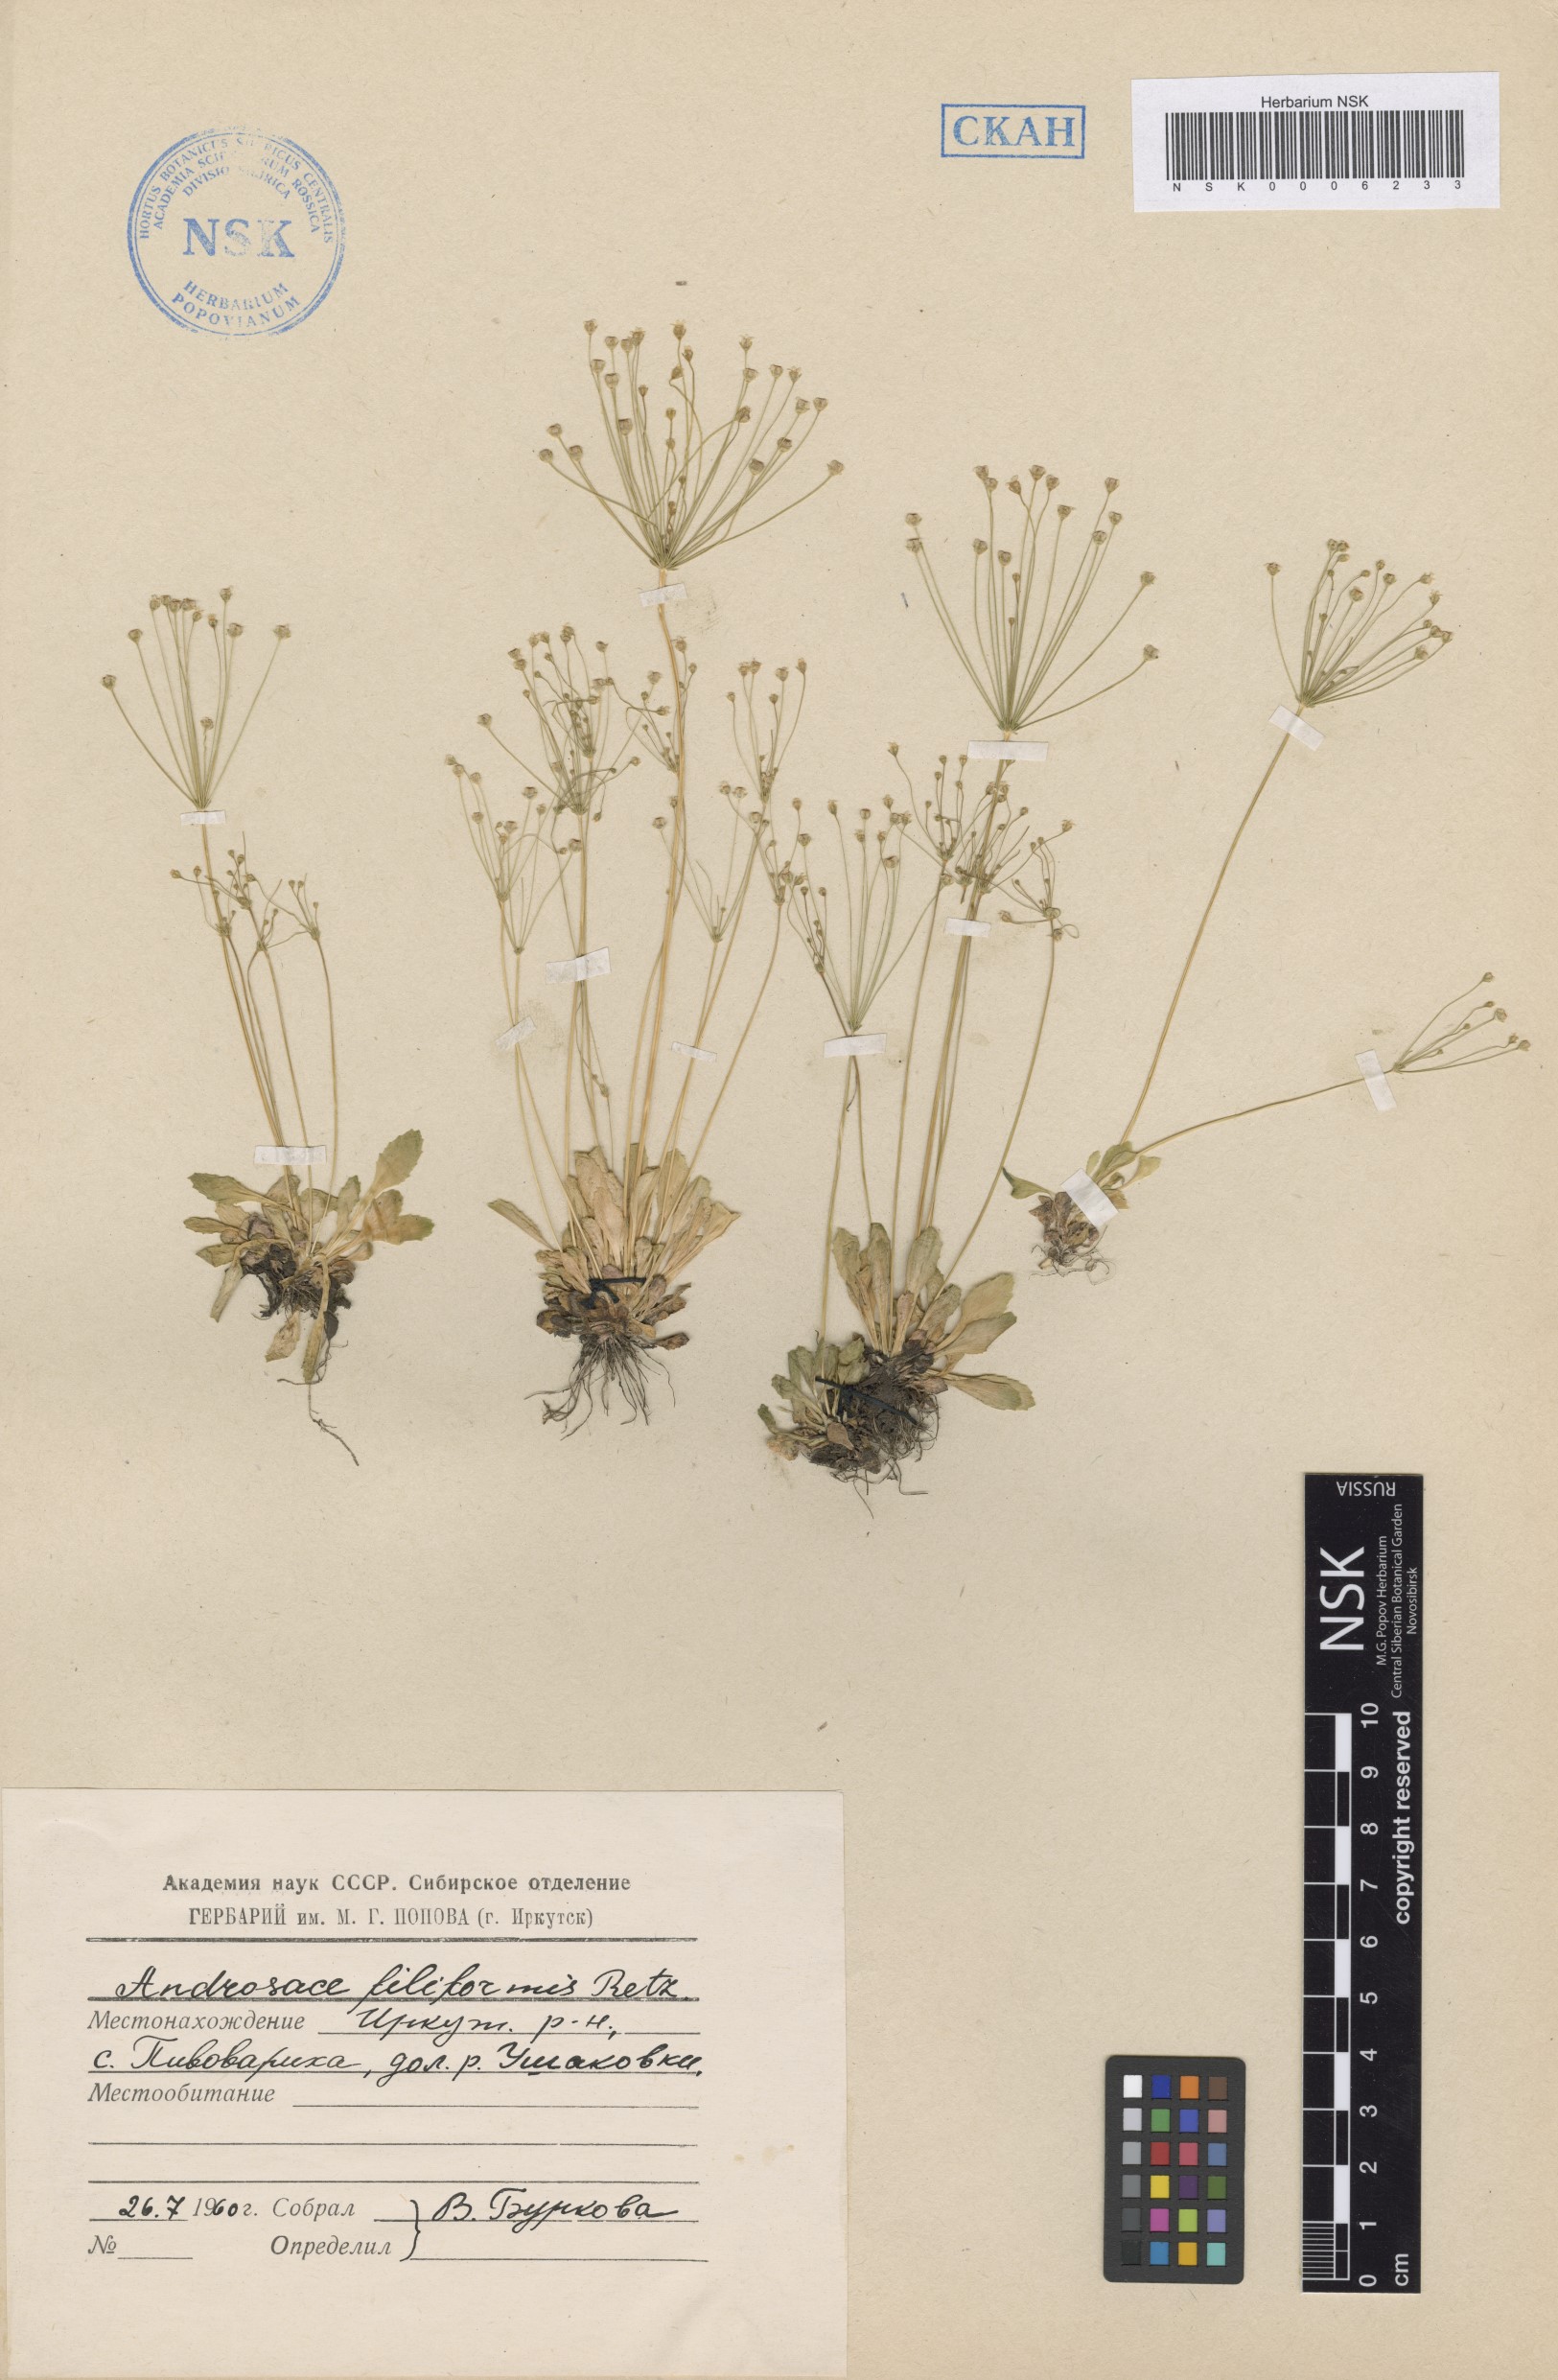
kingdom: Plantae
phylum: Tracheophyta
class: Magnoliopsida
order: Ericales
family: Primulaceae
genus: Androsace
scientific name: Androsace filiformis
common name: Filiform rock jasmine
